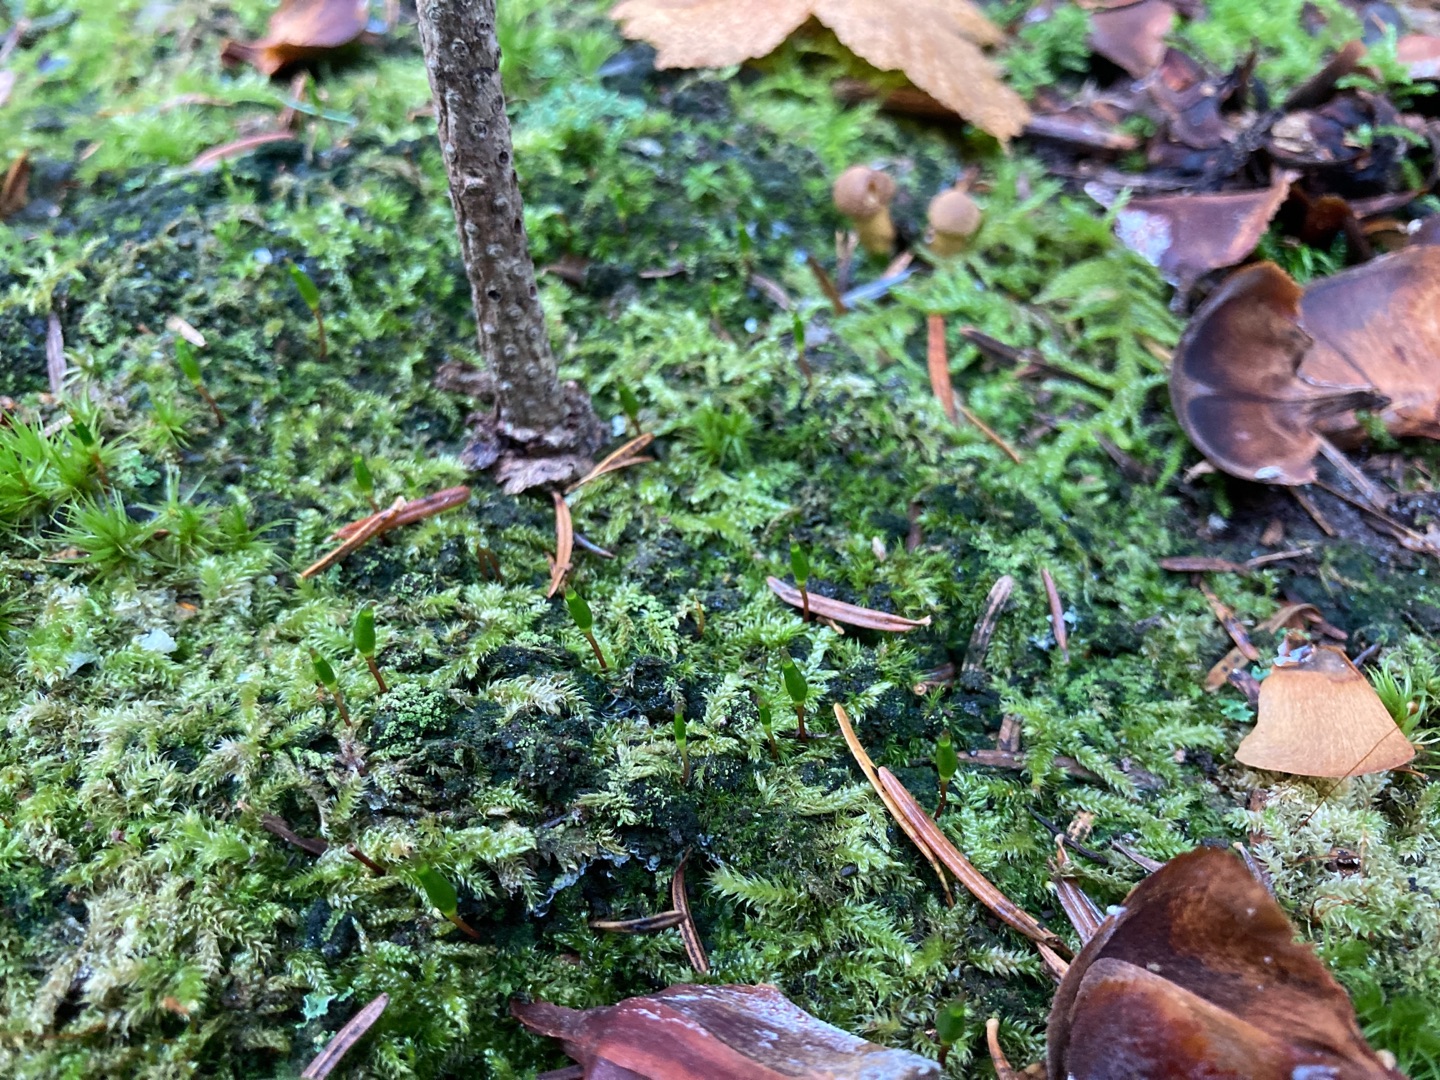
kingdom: Plantae
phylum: Bryophyta
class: Bryopsida
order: Buxbaumiales
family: Buxbaumiaceae
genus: Buxbaumia
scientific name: Buxbaumia viridis
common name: Grøn buxbaumia
